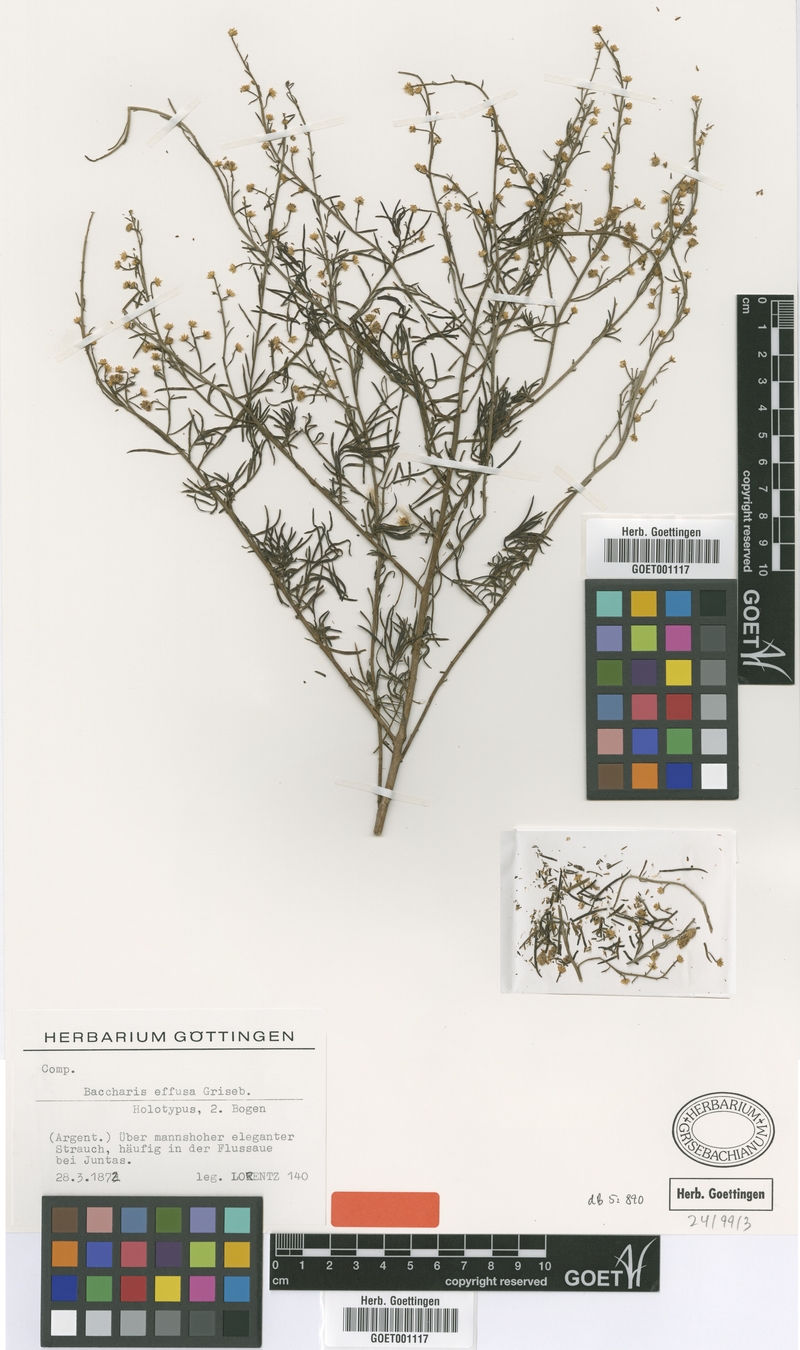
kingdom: Plantae
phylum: Tracheophyta
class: Magnoliopsida
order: Asterales
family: Asteraceae
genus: Baccharis
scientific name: Baccharis effusa
